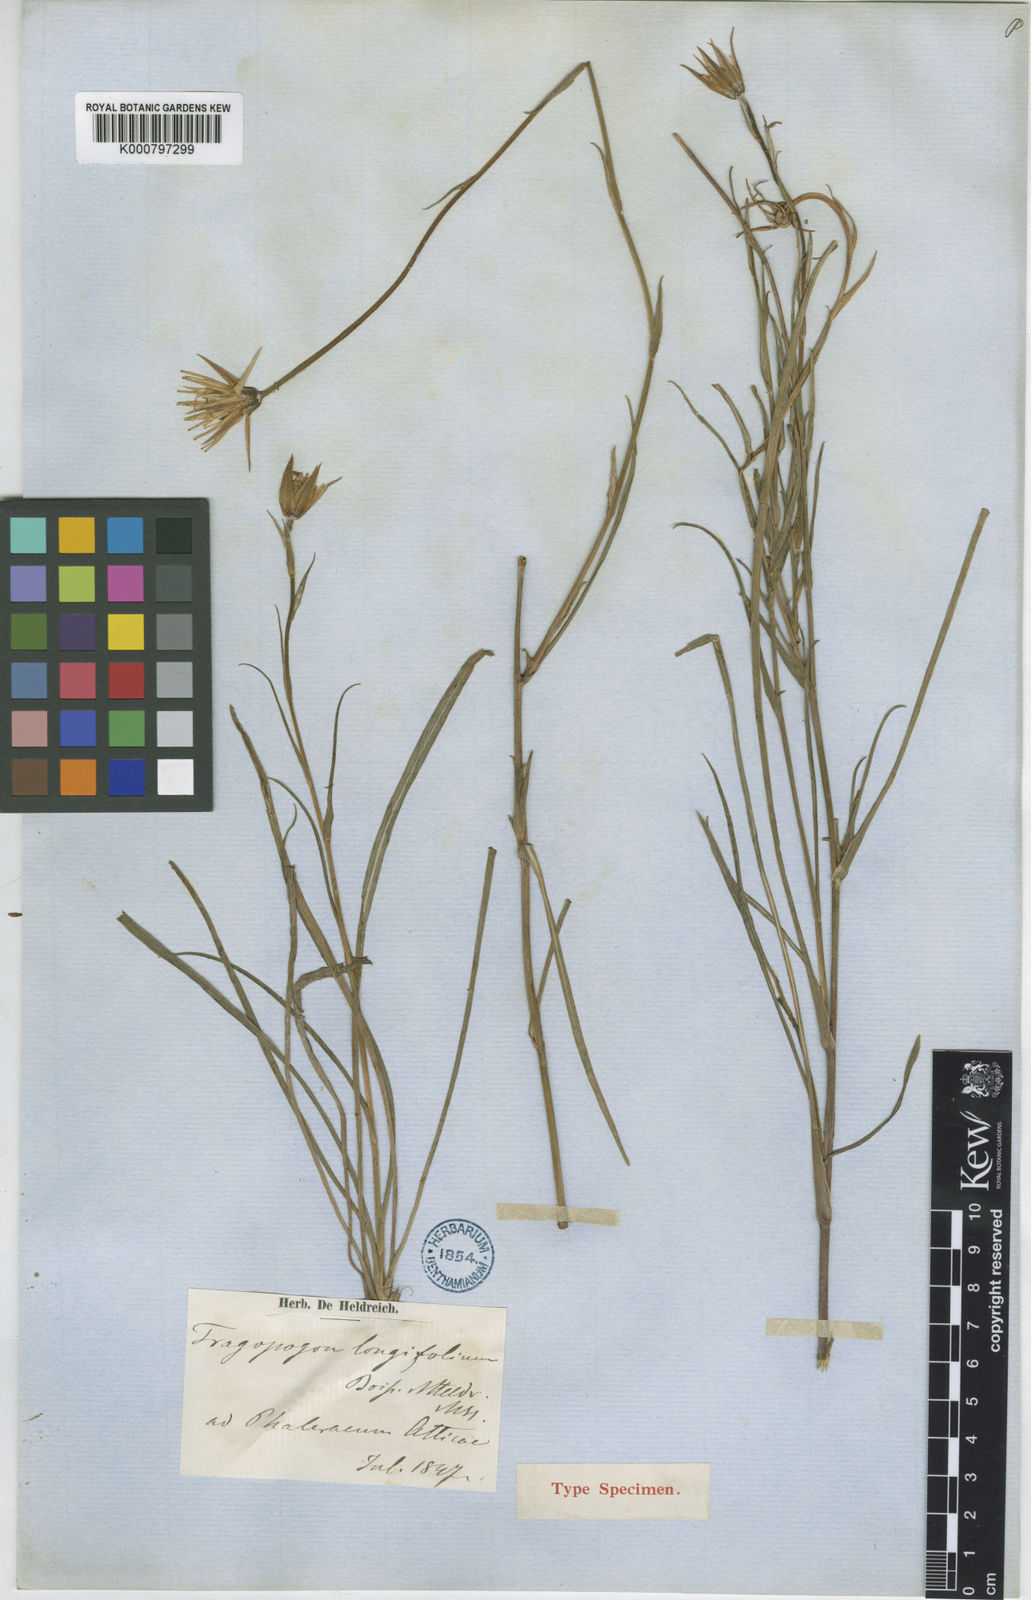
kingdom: Plantae
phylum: Tracheophyta
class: Magnoliopsida
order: Asterales
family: Asteraceae
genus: Tragopogon
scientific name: Tragopogon
